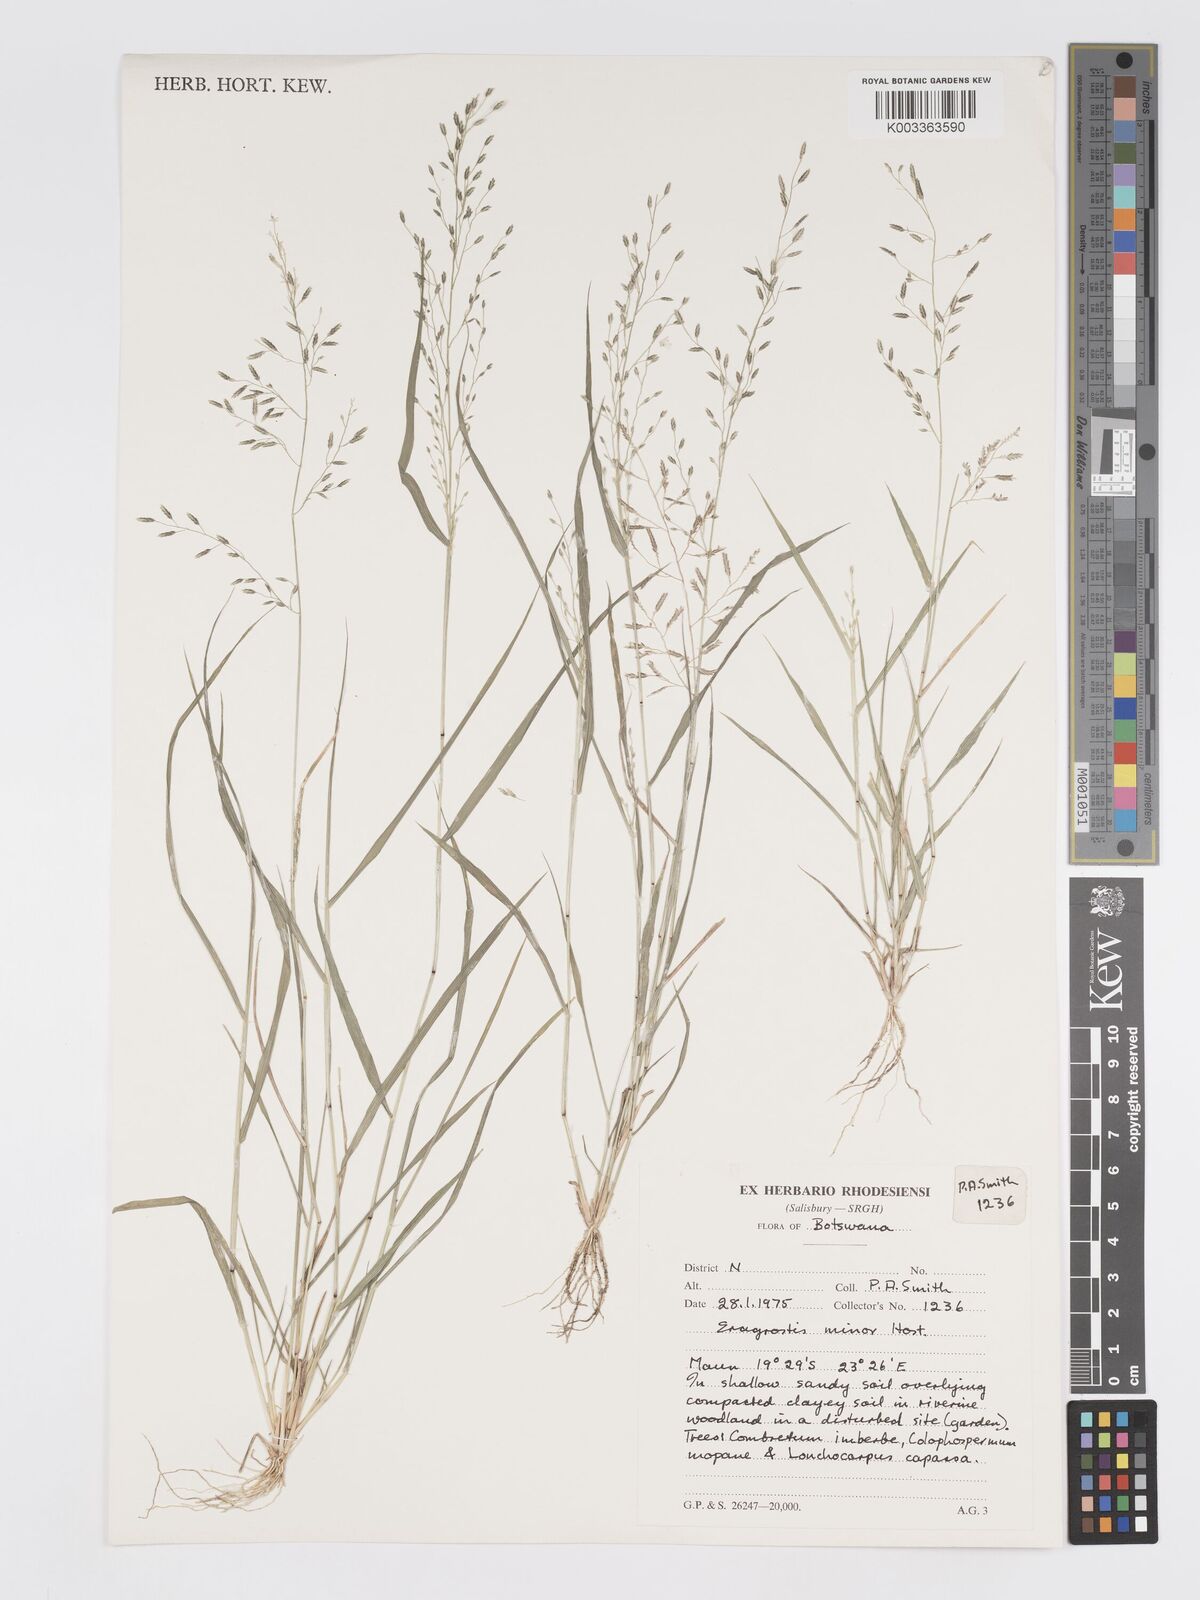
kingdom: Plantae
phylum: Tracheophyta
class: Liliopsida
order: Poales
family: Poaceae
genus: Eragrostis
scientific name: Eragrostis barrelieri
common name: Mediterranean lovegrass
